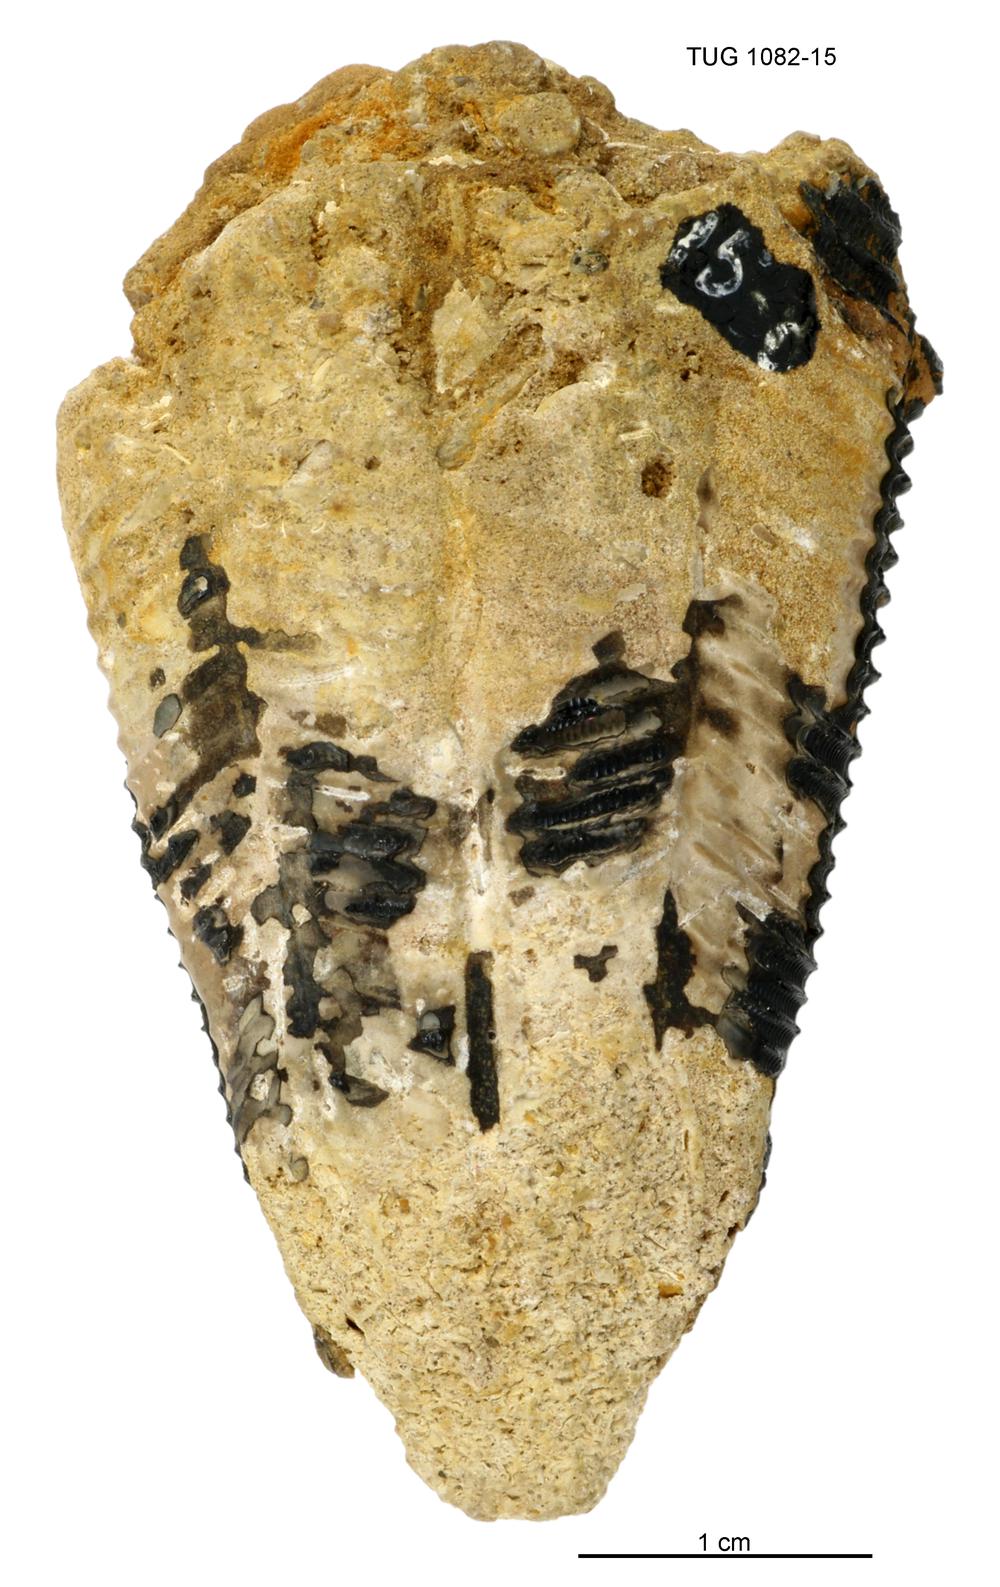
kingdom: Animalia
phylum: Cnidaria
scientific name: Cnidaria
